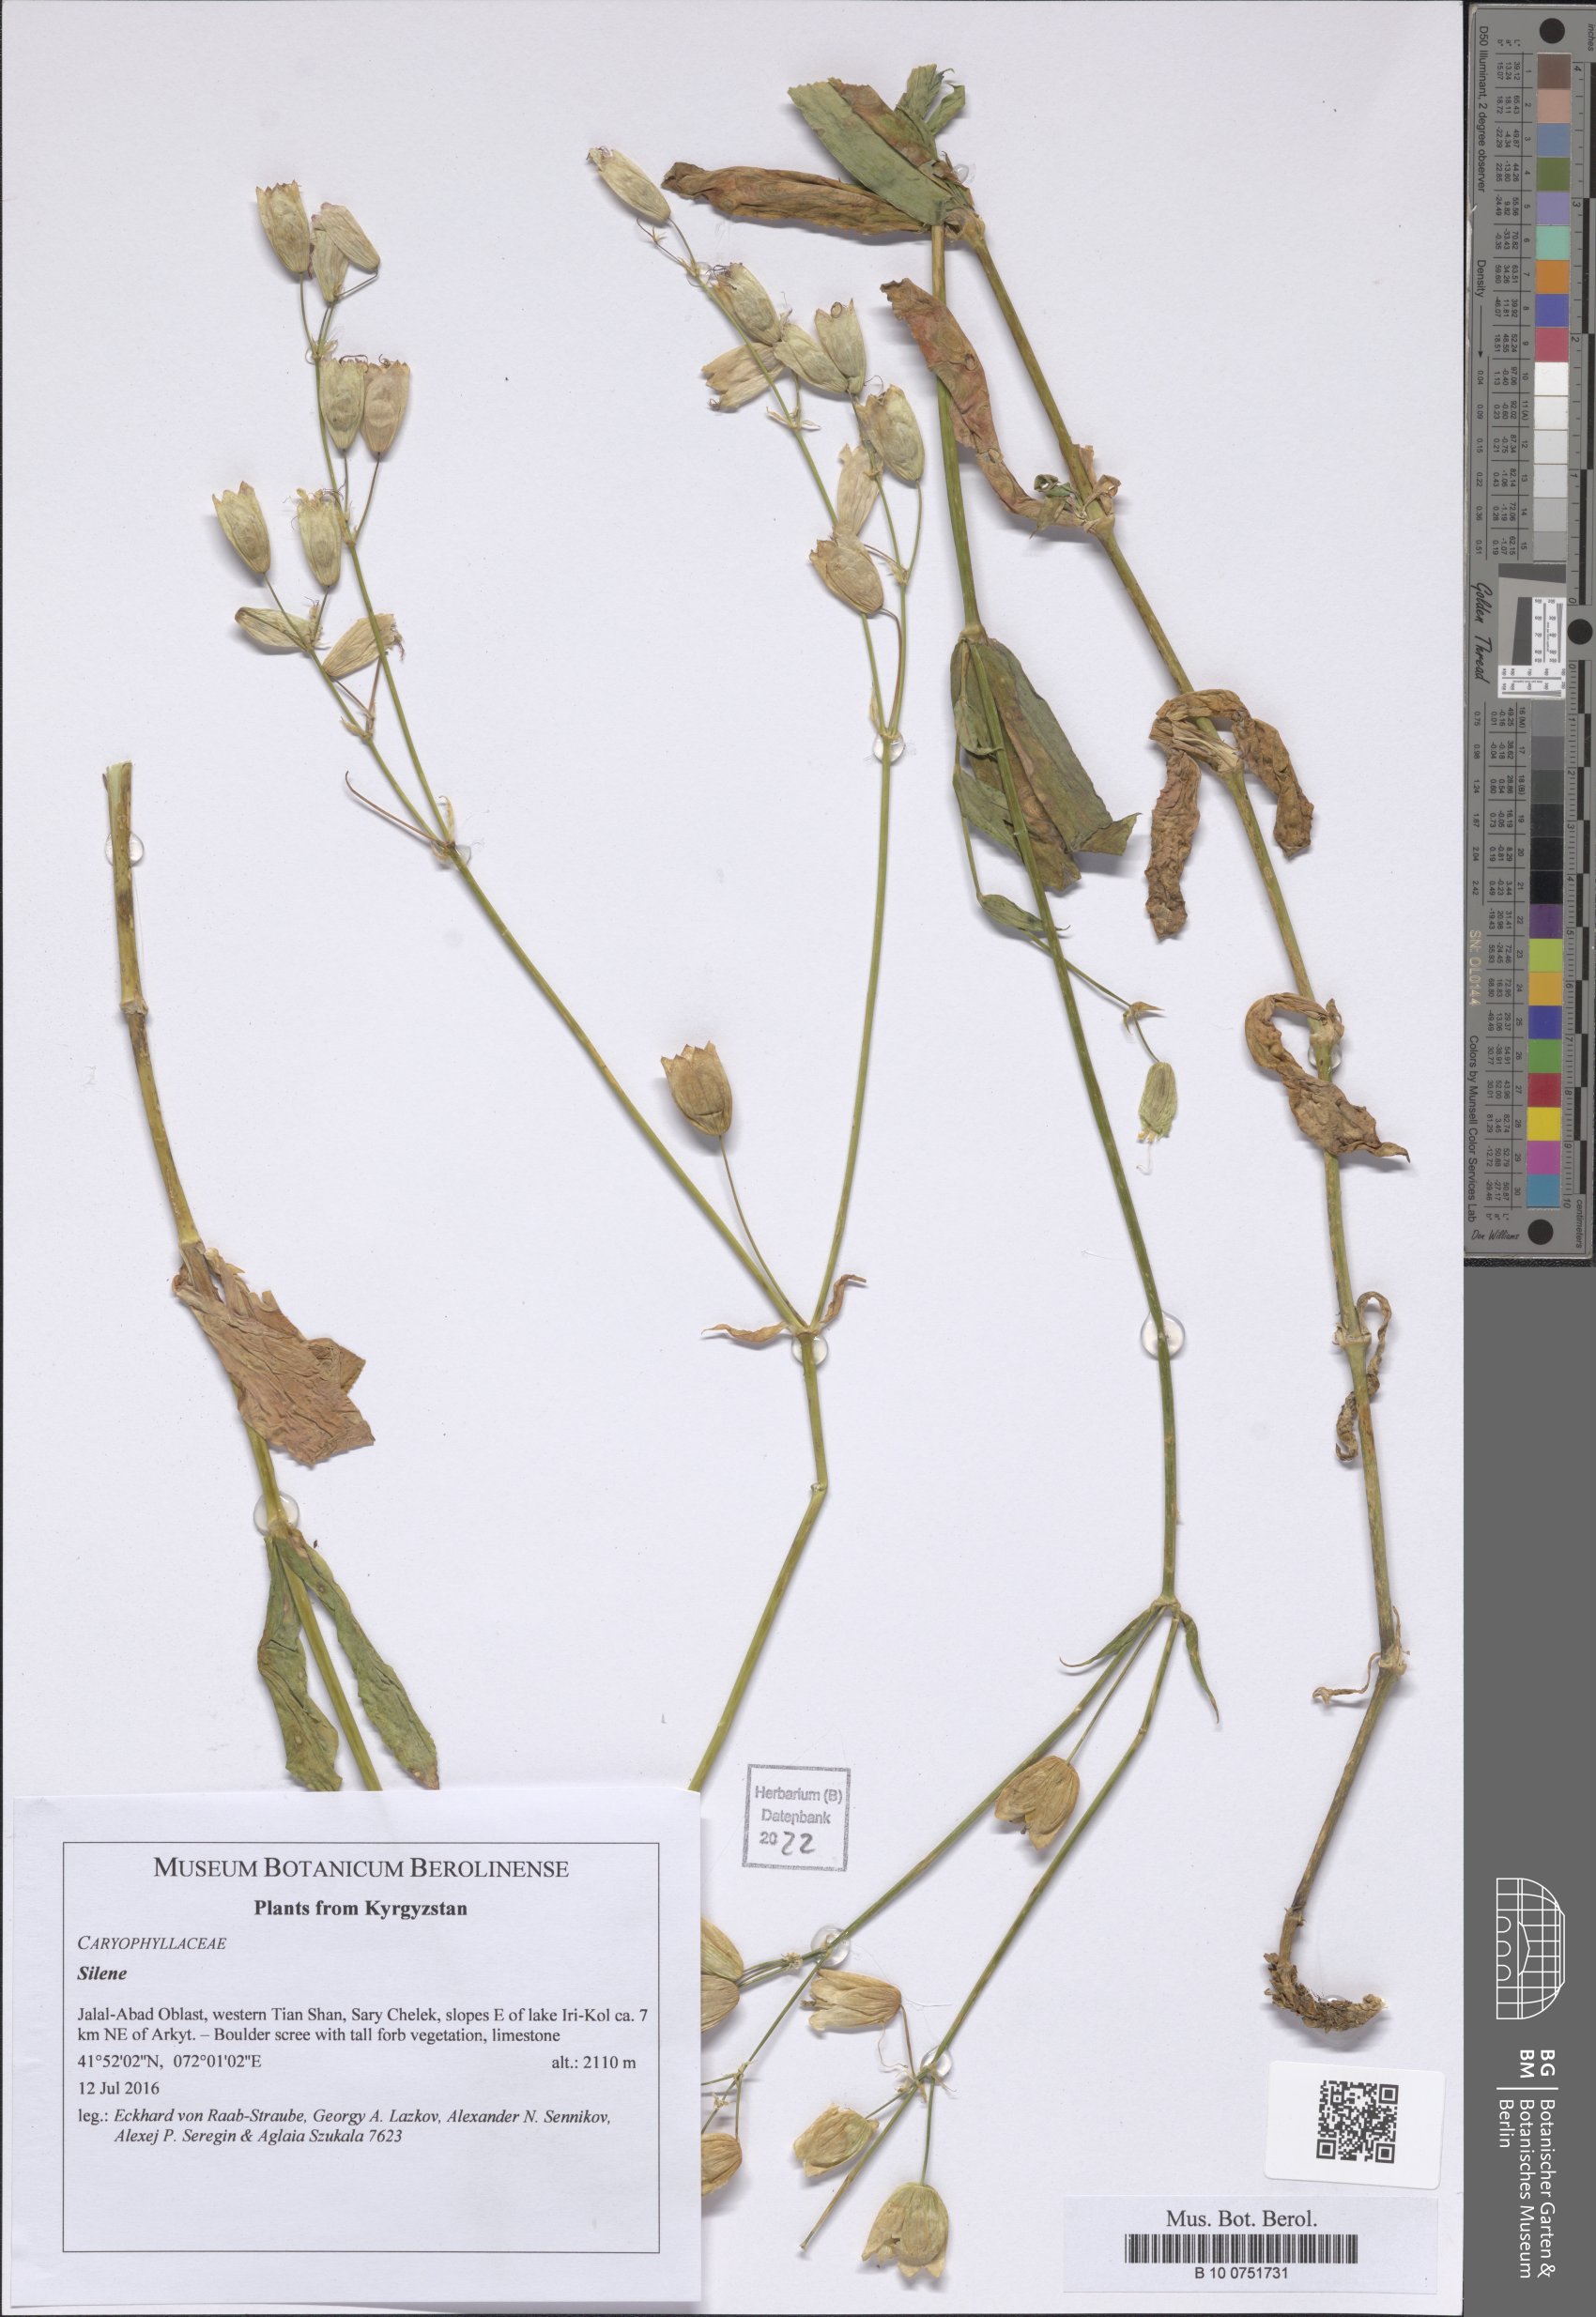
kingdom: Plantae
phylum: Tracheophyta
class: Magnoliopsida
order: Caryophyllales
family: Caryophyllaceae
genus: Silene
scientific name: Silene
